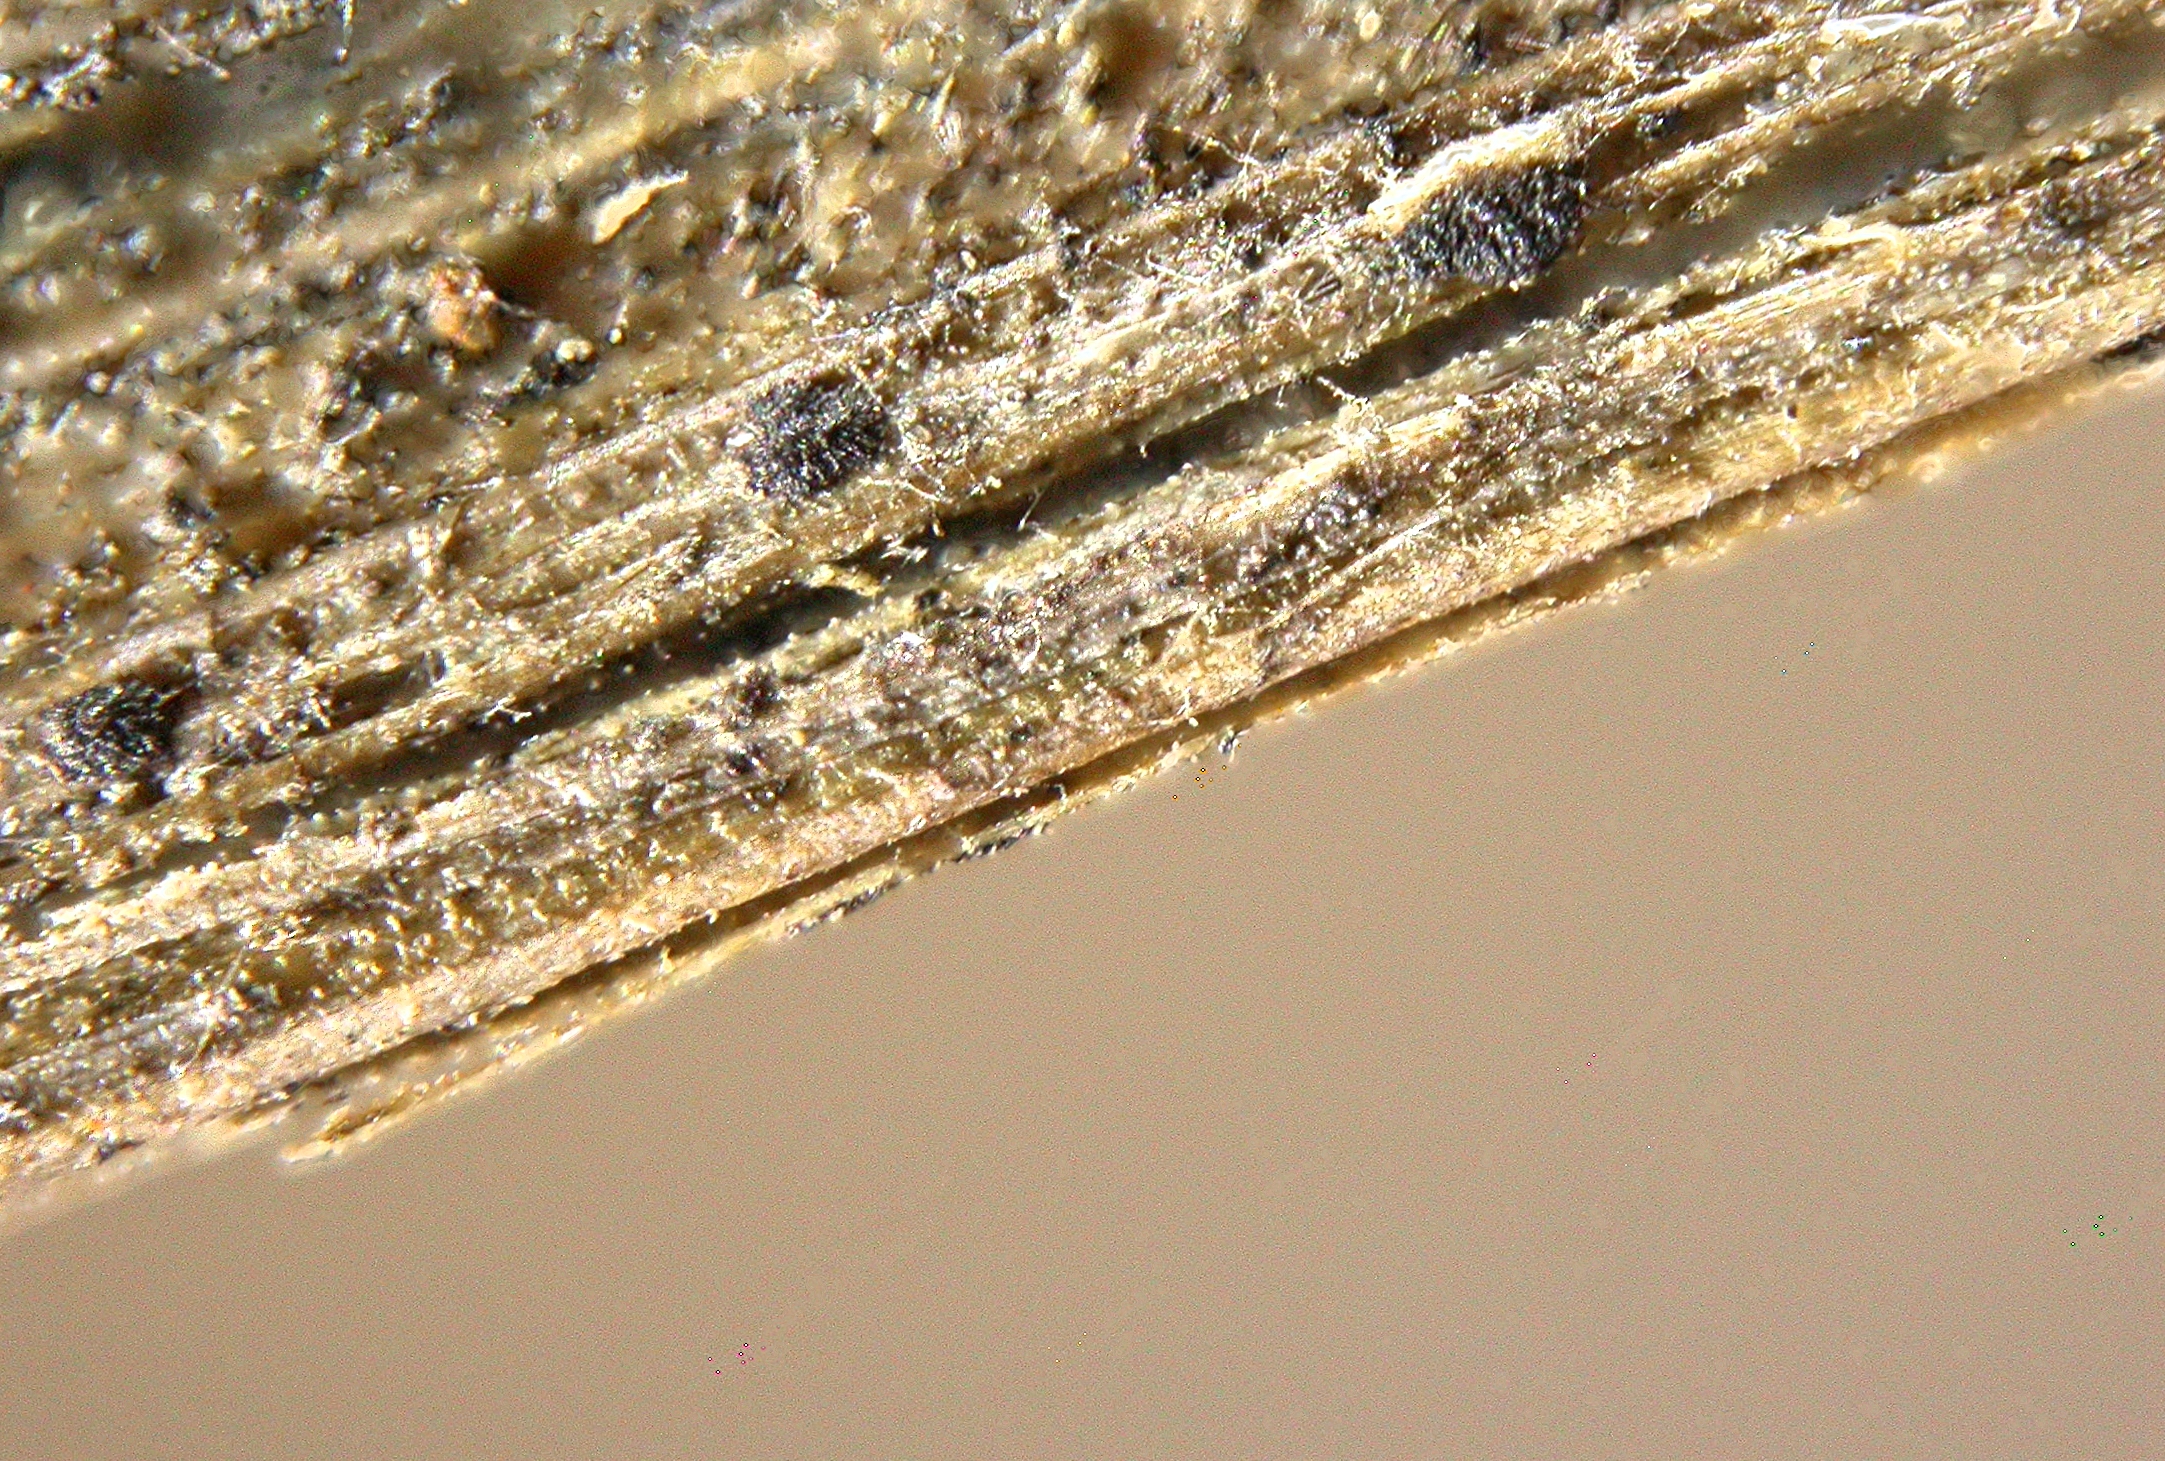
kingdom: Fungi
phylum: Ascomycota
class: Leotiomycetes
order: Helotiales
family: Ploettnerulaceae
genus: Pyrenopeziza
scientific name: Pyrenopeziza griseoalbida
